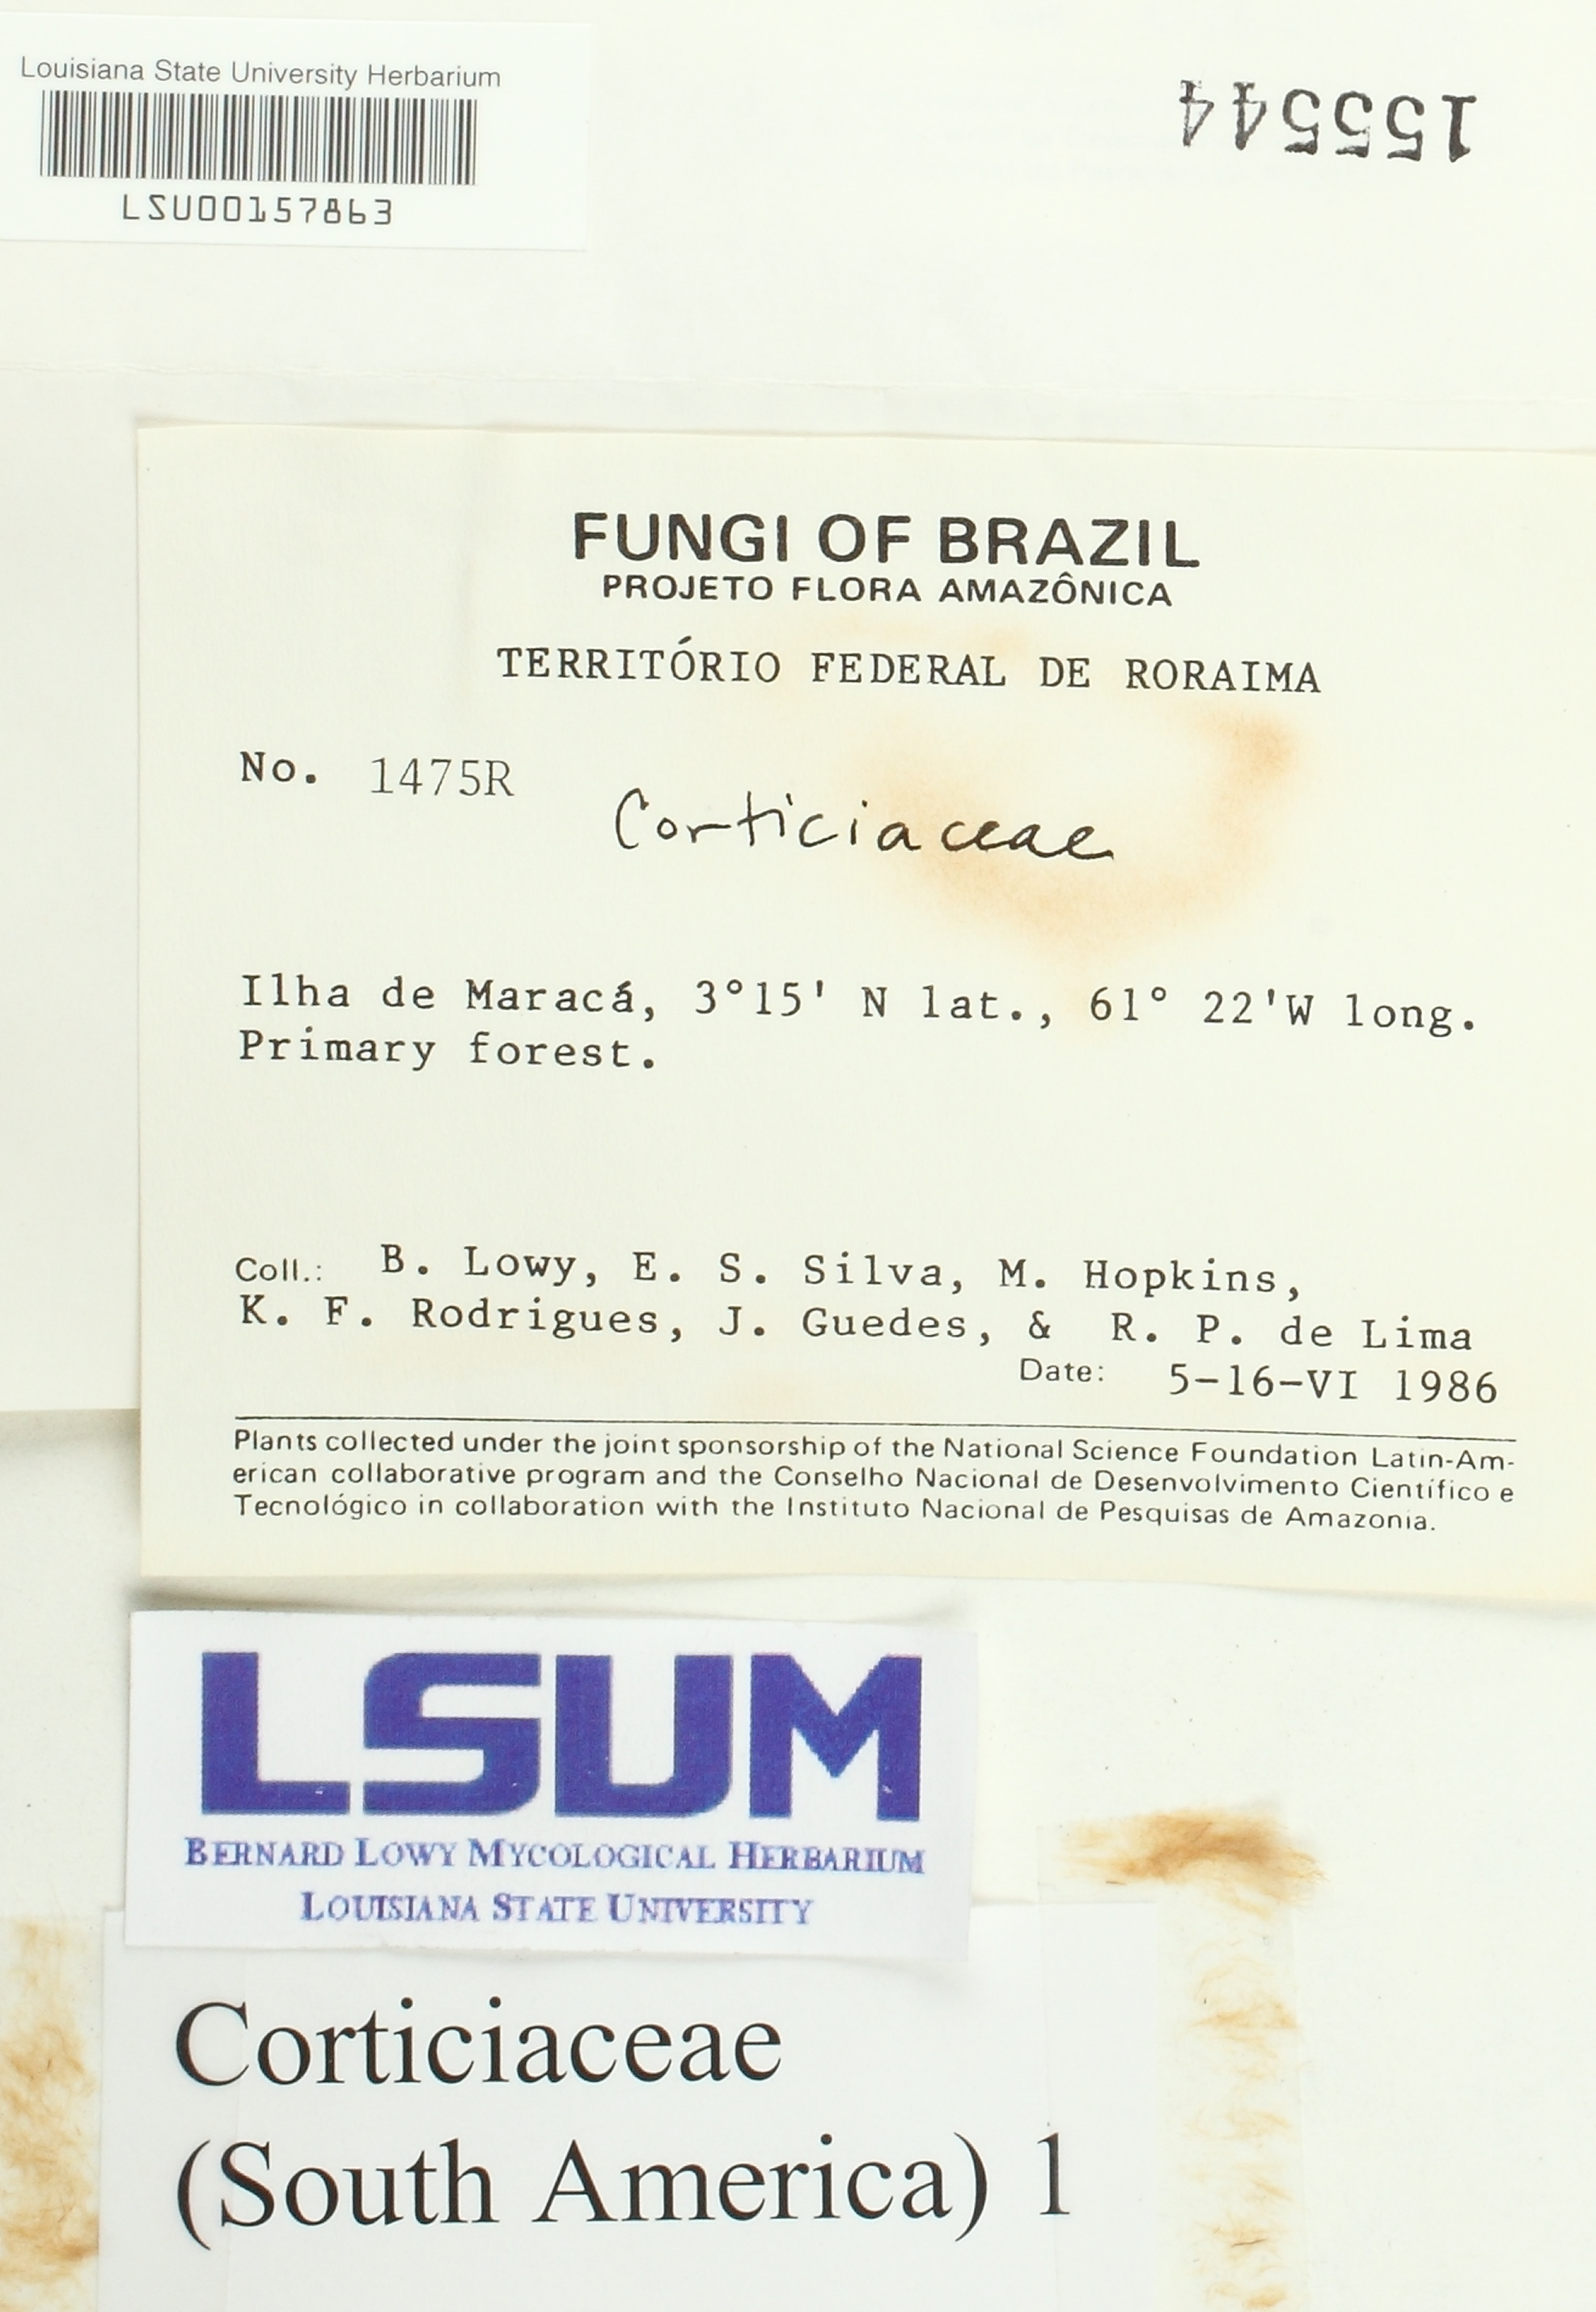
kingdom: Fungi
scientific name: Fungi
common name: Fungi
